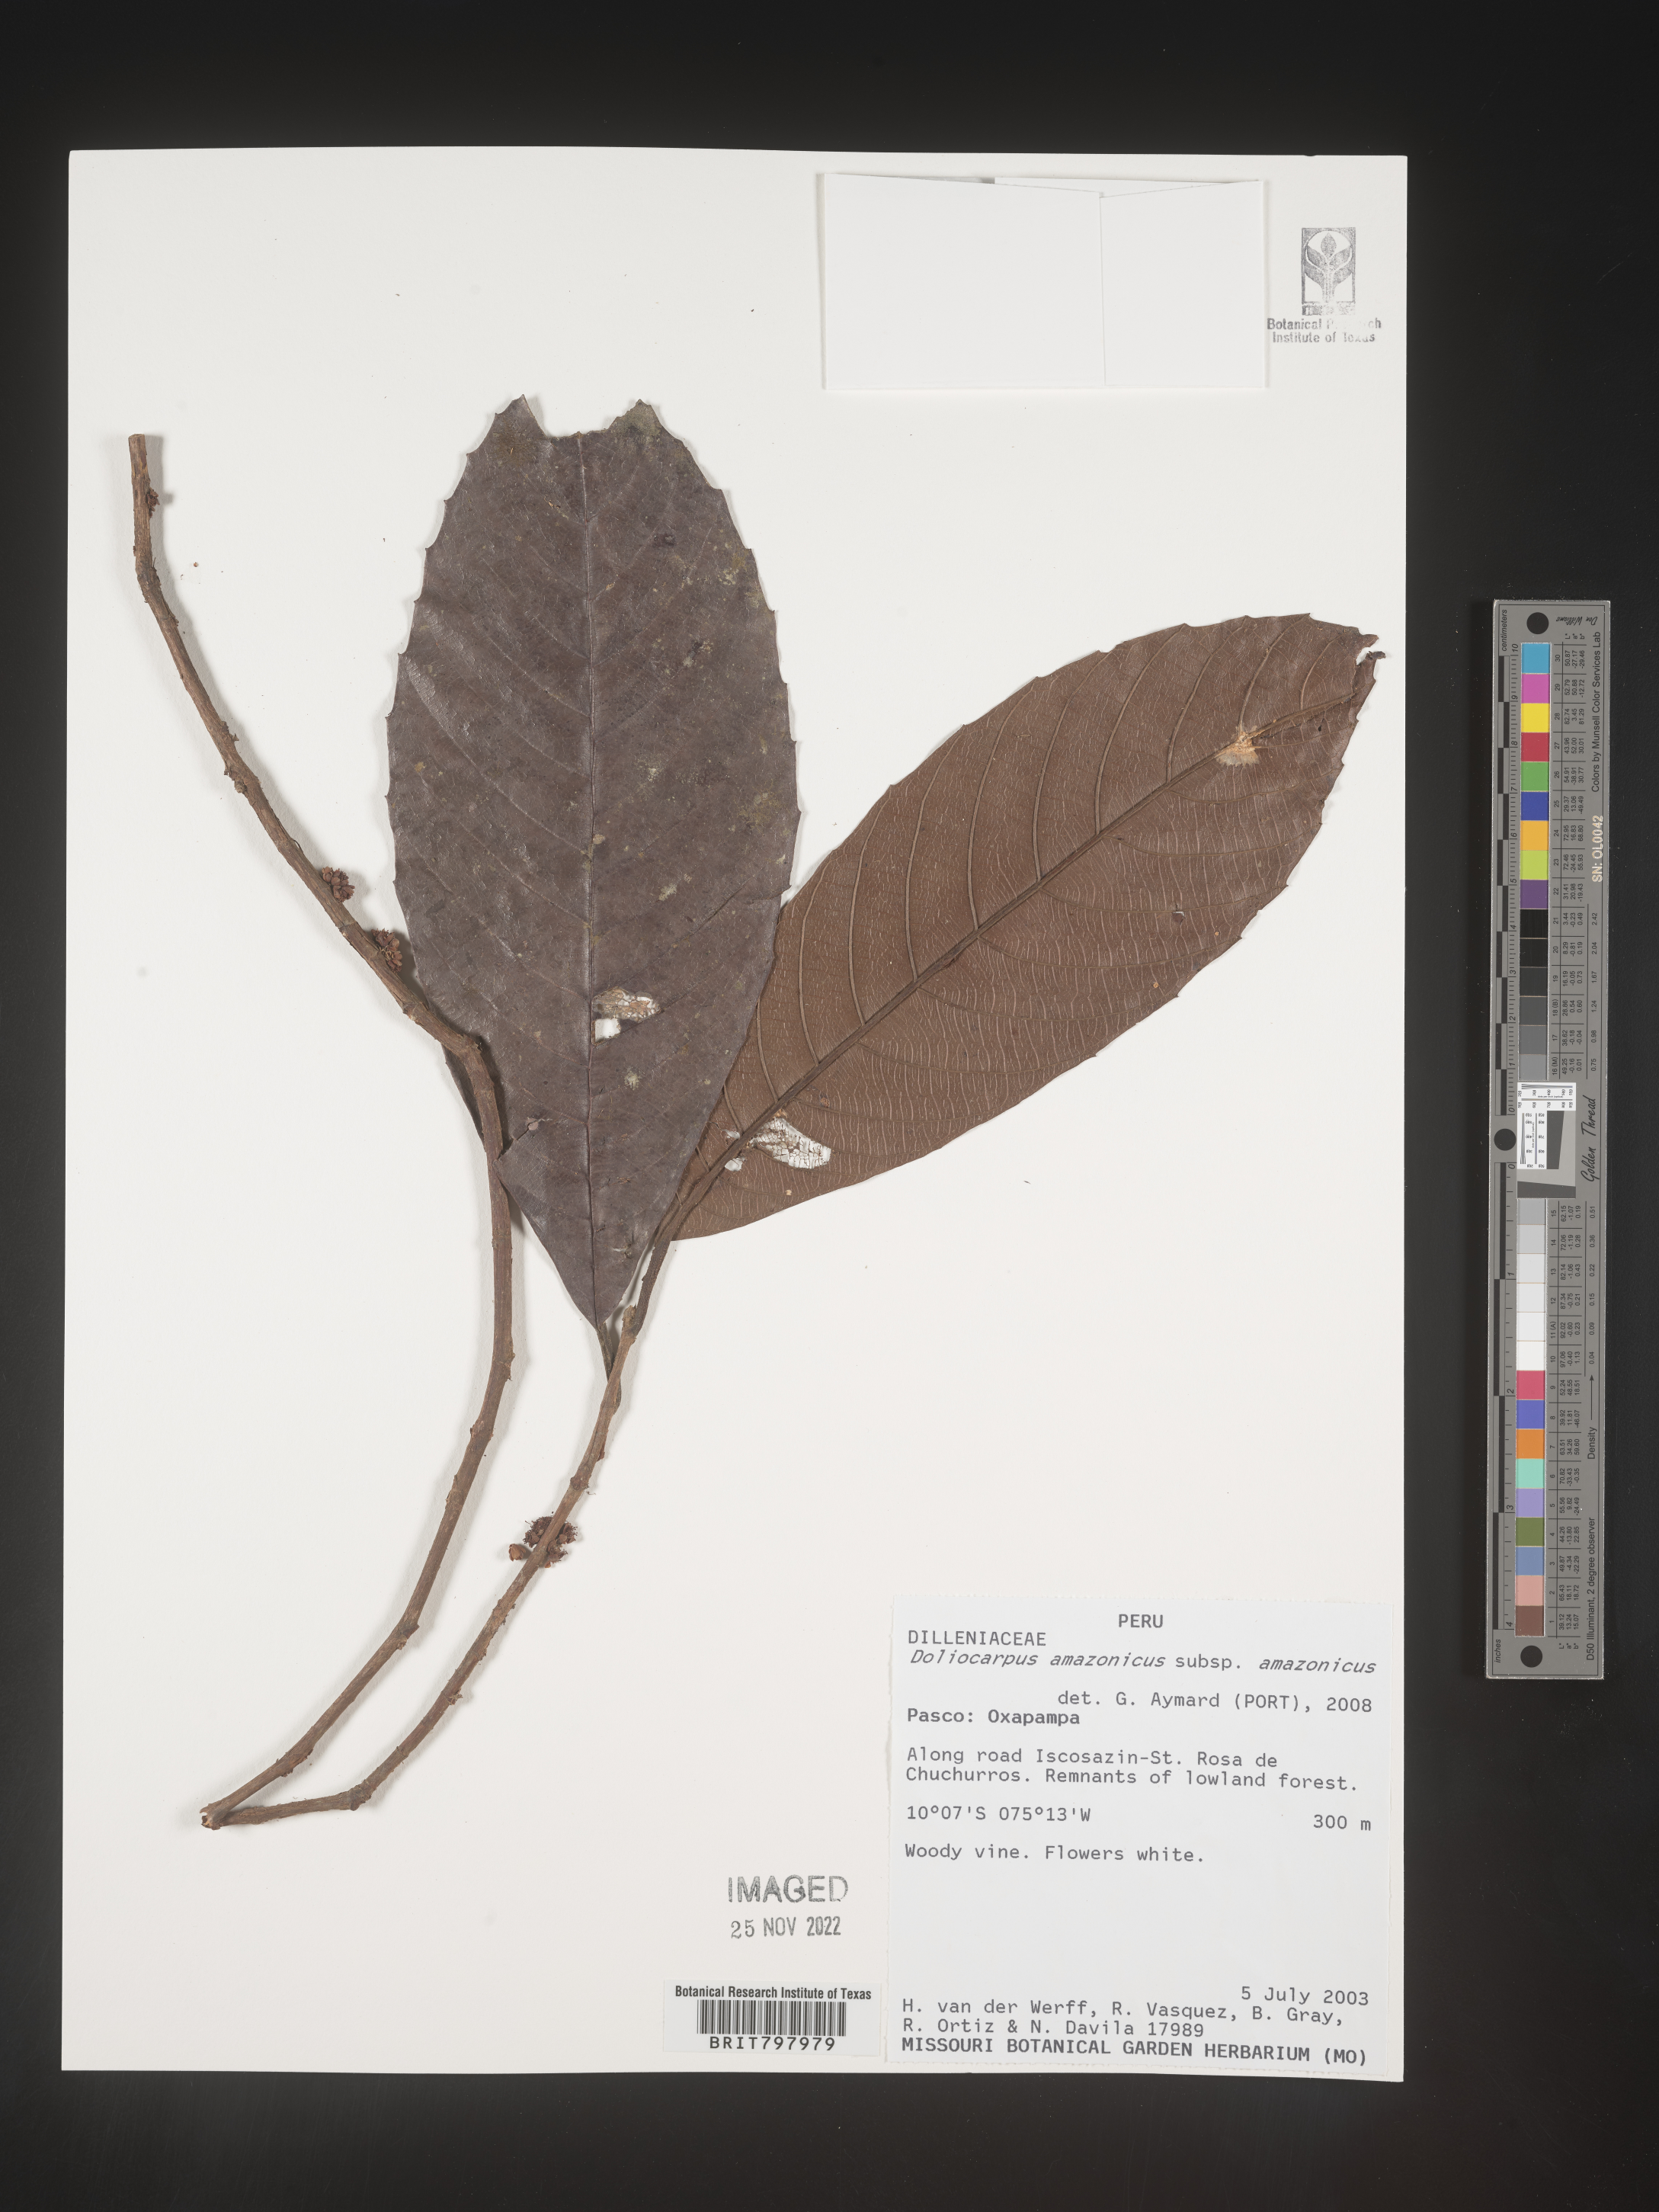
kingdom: Plantae
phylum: Tracheophyta
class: Magnoliopsida
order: Dilleniales
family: Dilleniaceae
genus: Doliocarpus
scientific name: Doliocarpus
